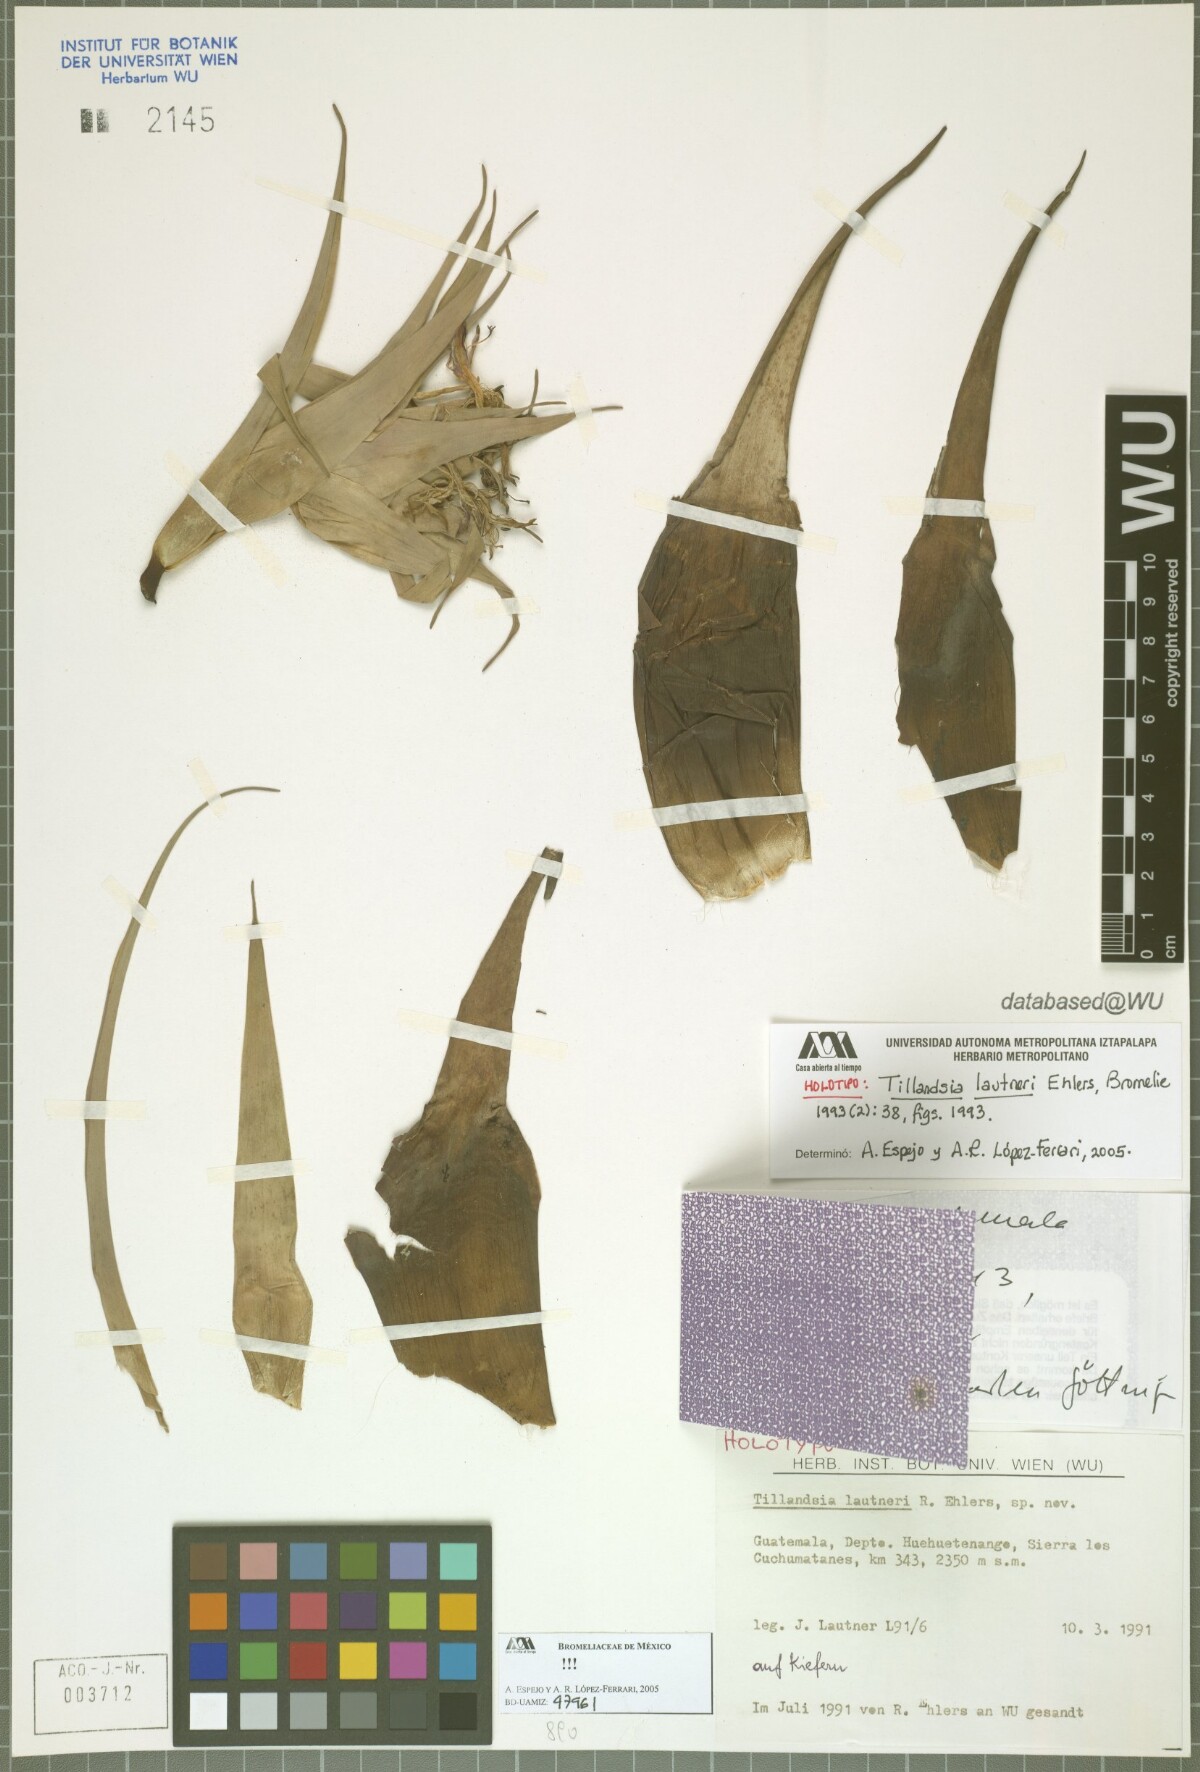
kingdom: Plantae
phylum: Tracheophyta
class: Liliopsida
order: Poales
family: Bromeliaceae
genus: Tillandsia
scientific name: Tillandsia lautneri
